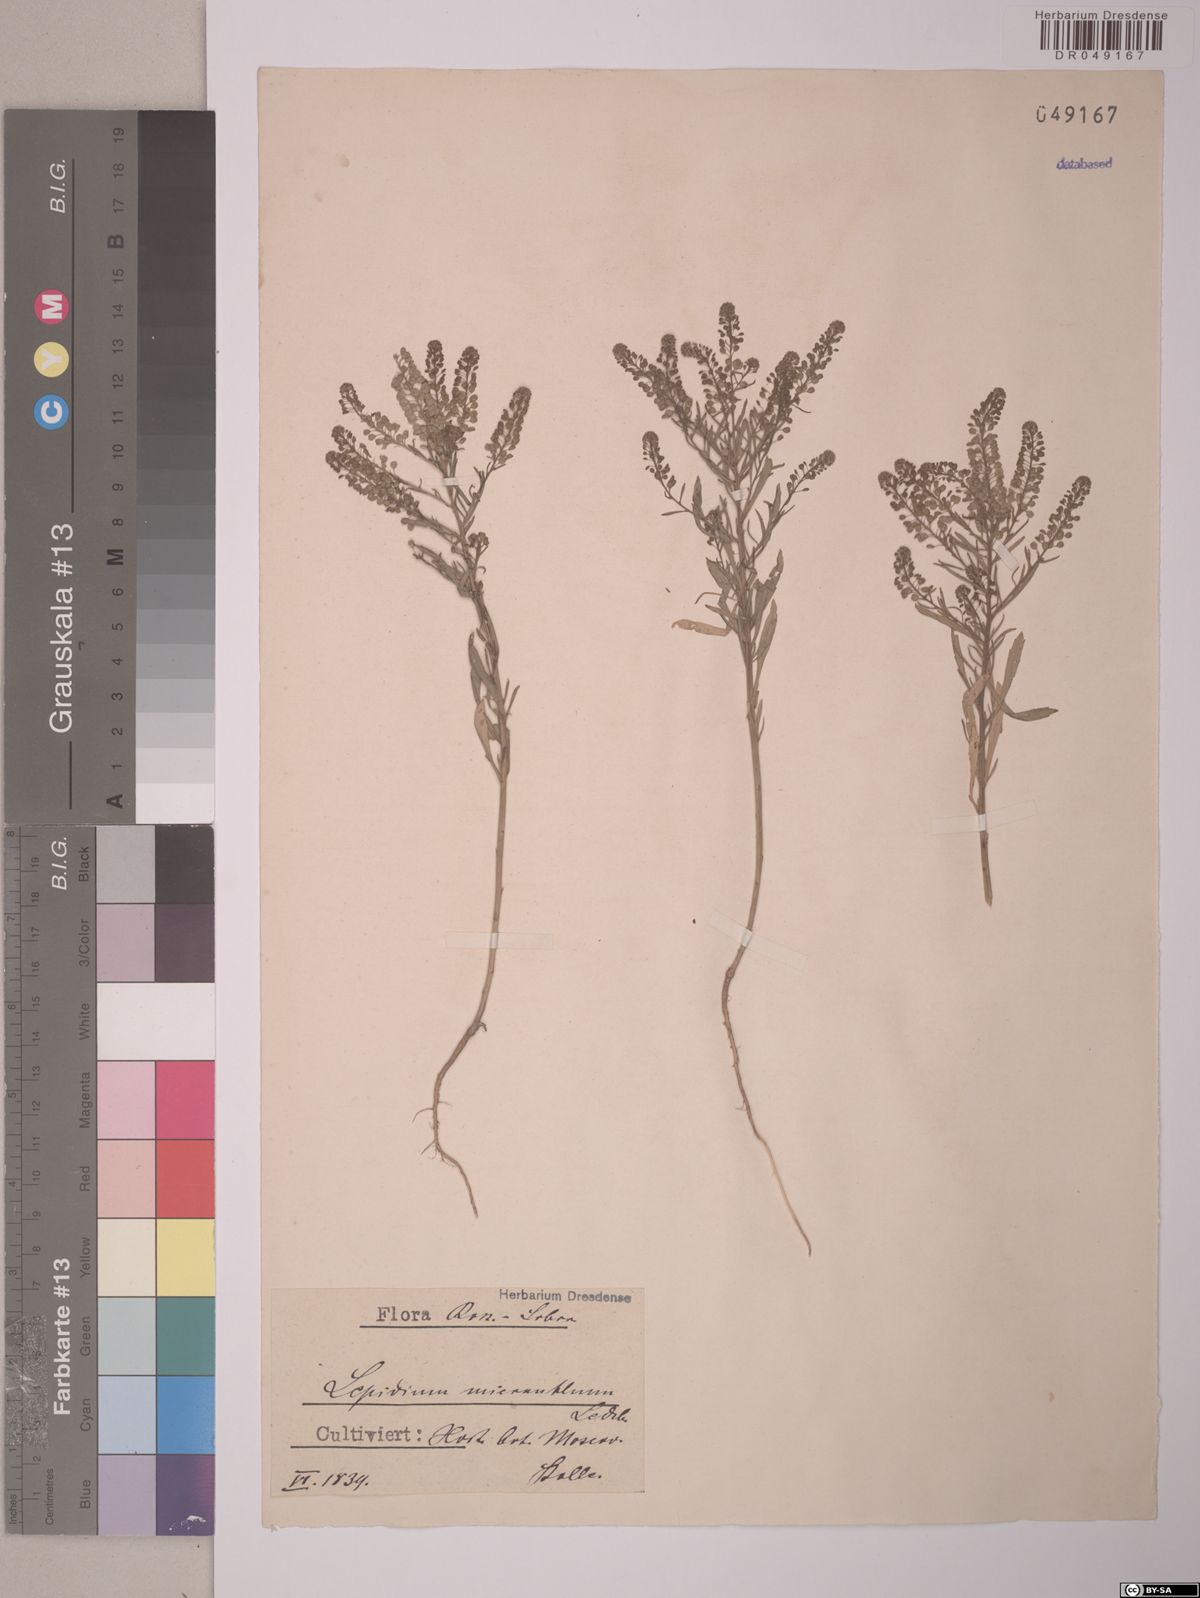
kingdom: Plantae
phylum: Tracheophyta
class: Magnoliopsida
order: Brassicales
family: Brassicaceae
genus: Lepidium
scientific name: Lepidium
